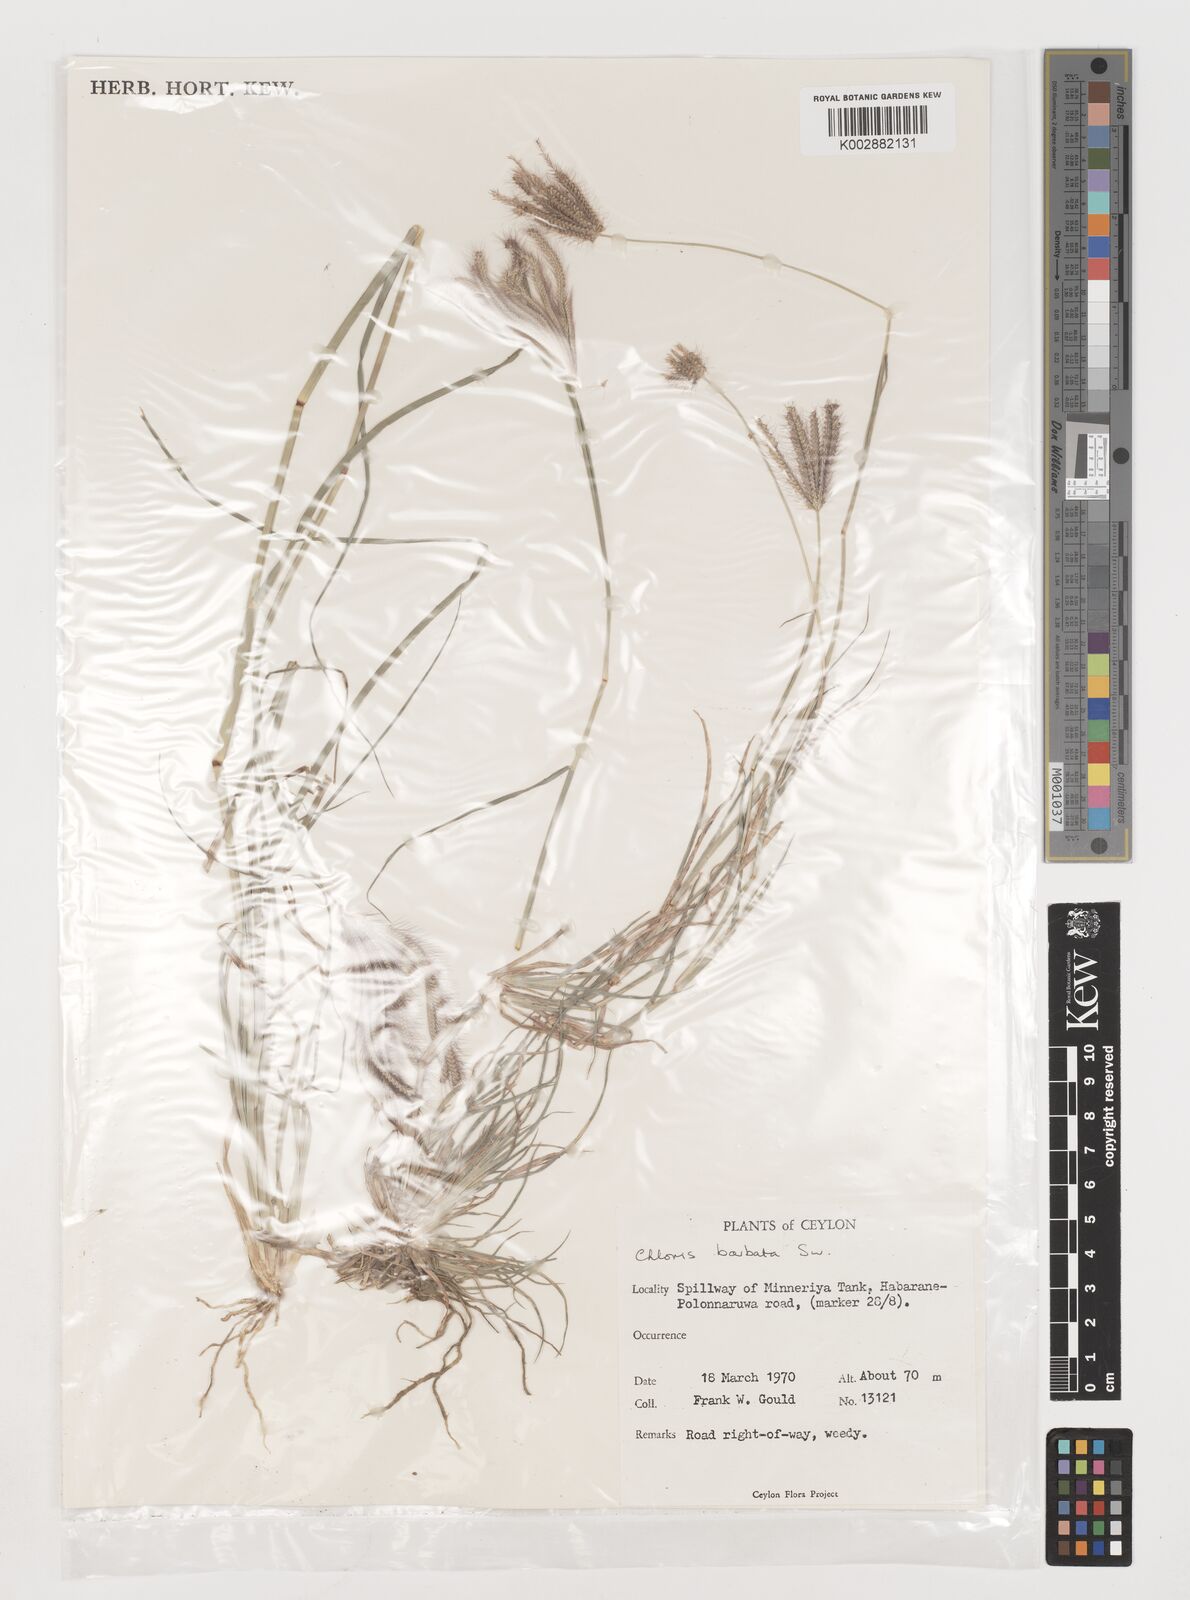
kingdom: Plantae
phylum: Tracheophyta
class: Liliopsida
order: Poales
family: Poaceae
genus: Chloris
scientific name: Chloris barbata
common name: Swollen fingergrass
